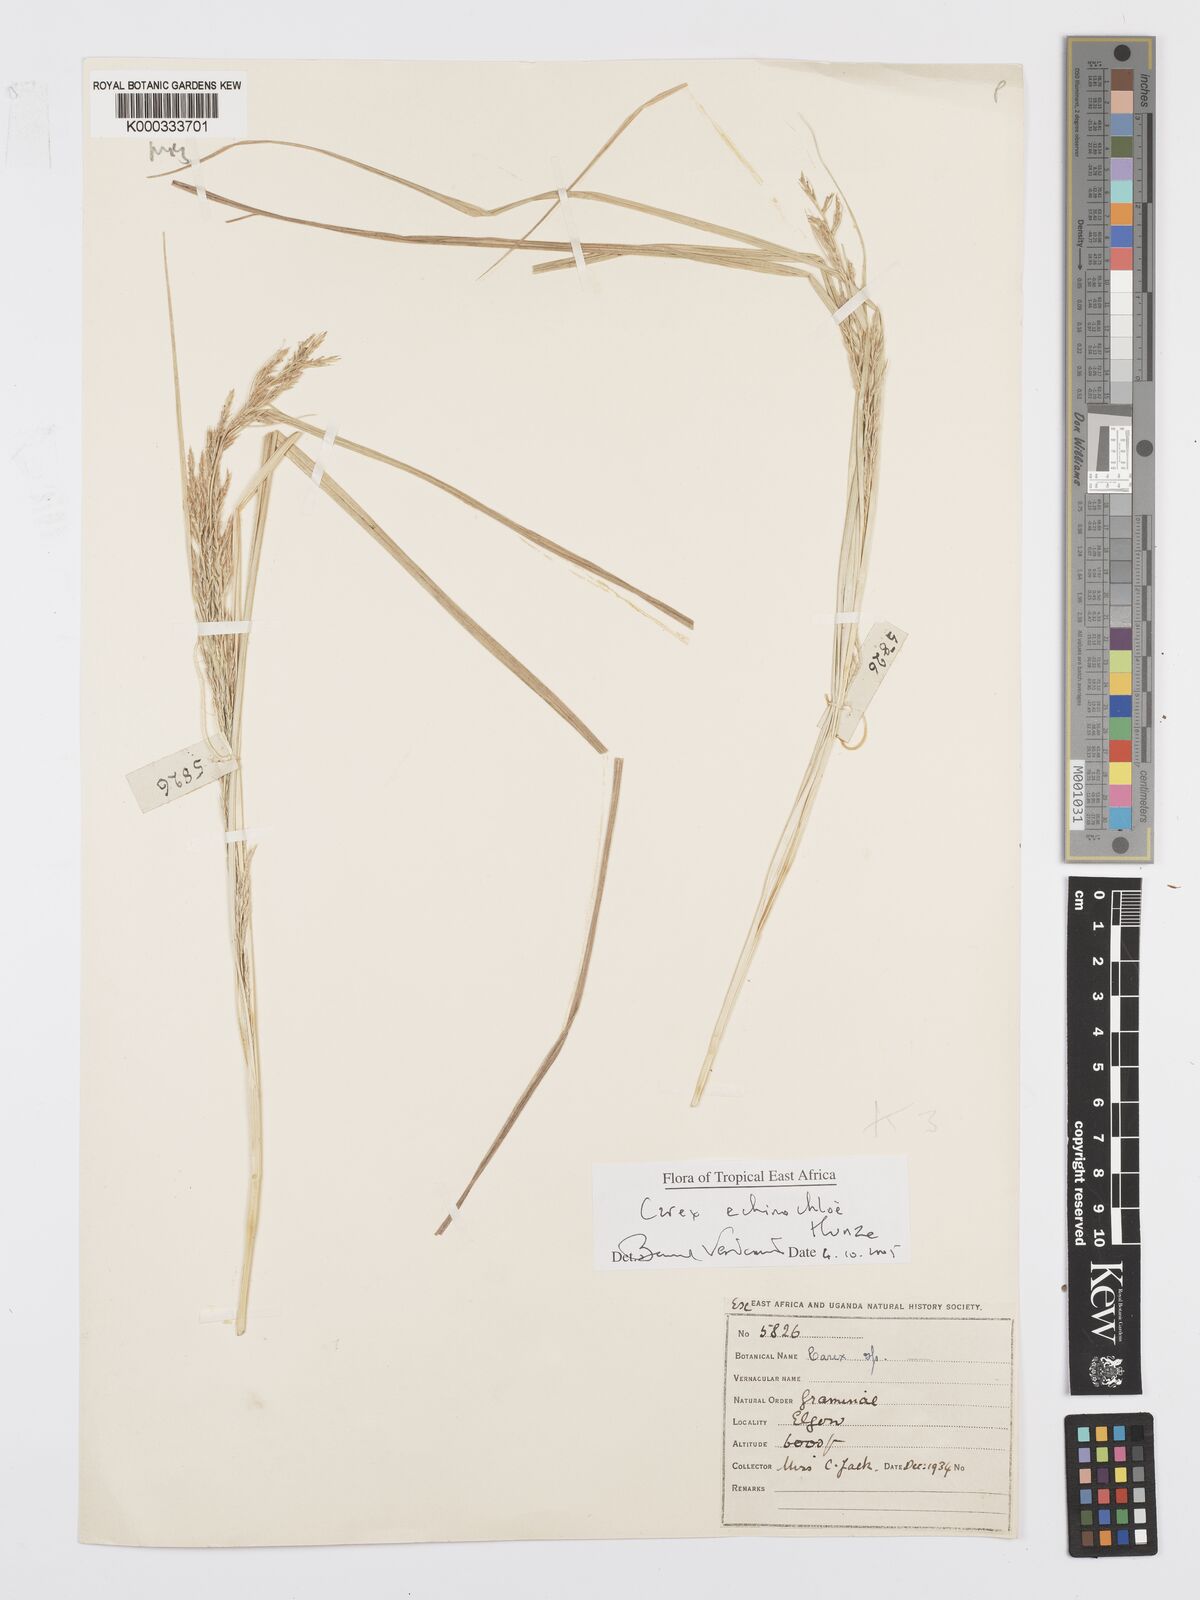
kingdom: Plantae
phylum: Tracheophyta
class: Liliopsida
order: Poales
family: Cyperaceae
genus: Carex
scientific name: Carex echinochloe
